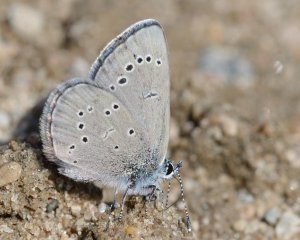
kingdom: Animalia
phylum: Arthropoda
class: Insecta
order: Lepidoptera
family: Lycaenidae
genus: Glaucopsyche
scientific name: Glaucopsyche lygdamus
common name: Silvery Blue
